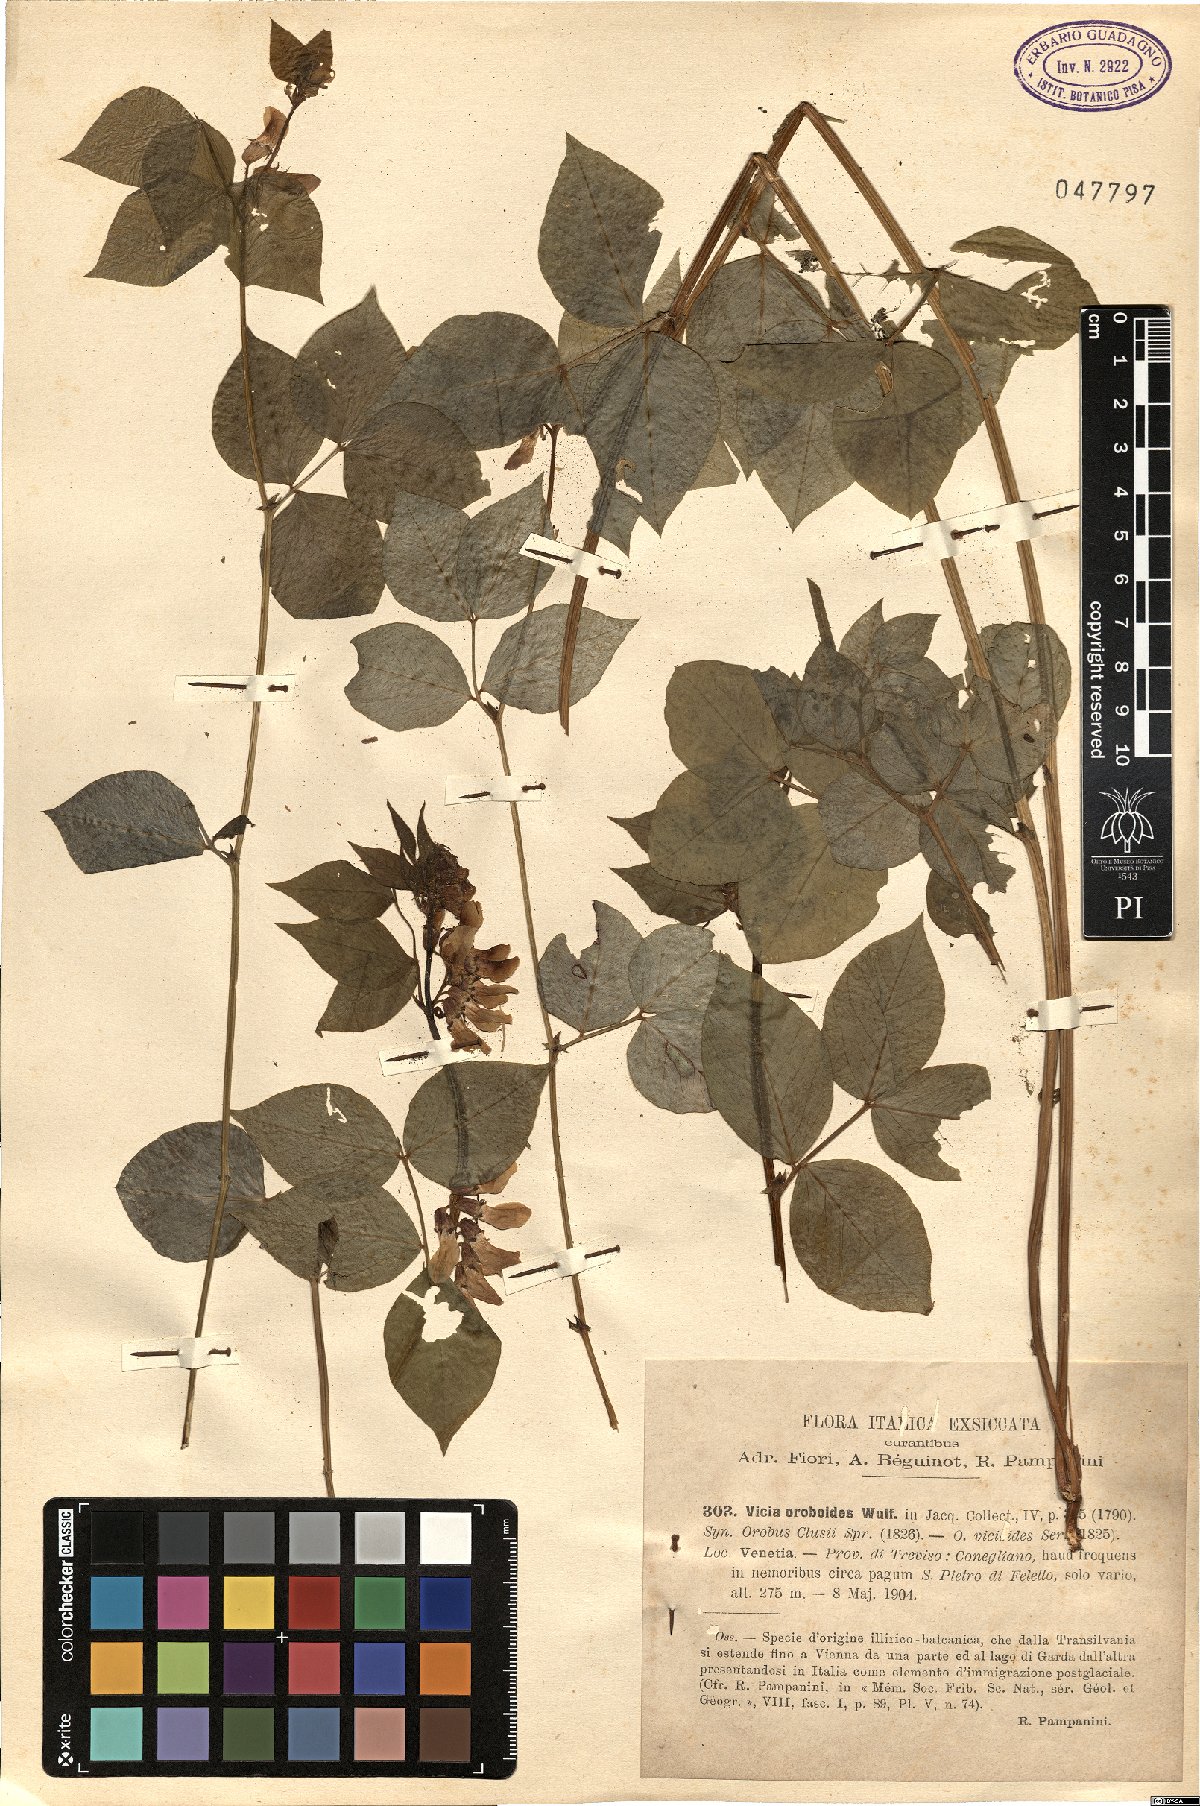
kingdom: Plantae
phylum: Tracheophyta
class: Magnoliopsida
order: Fabales
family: Fabaceae
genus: Vicia
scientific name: Vicia oroboides
